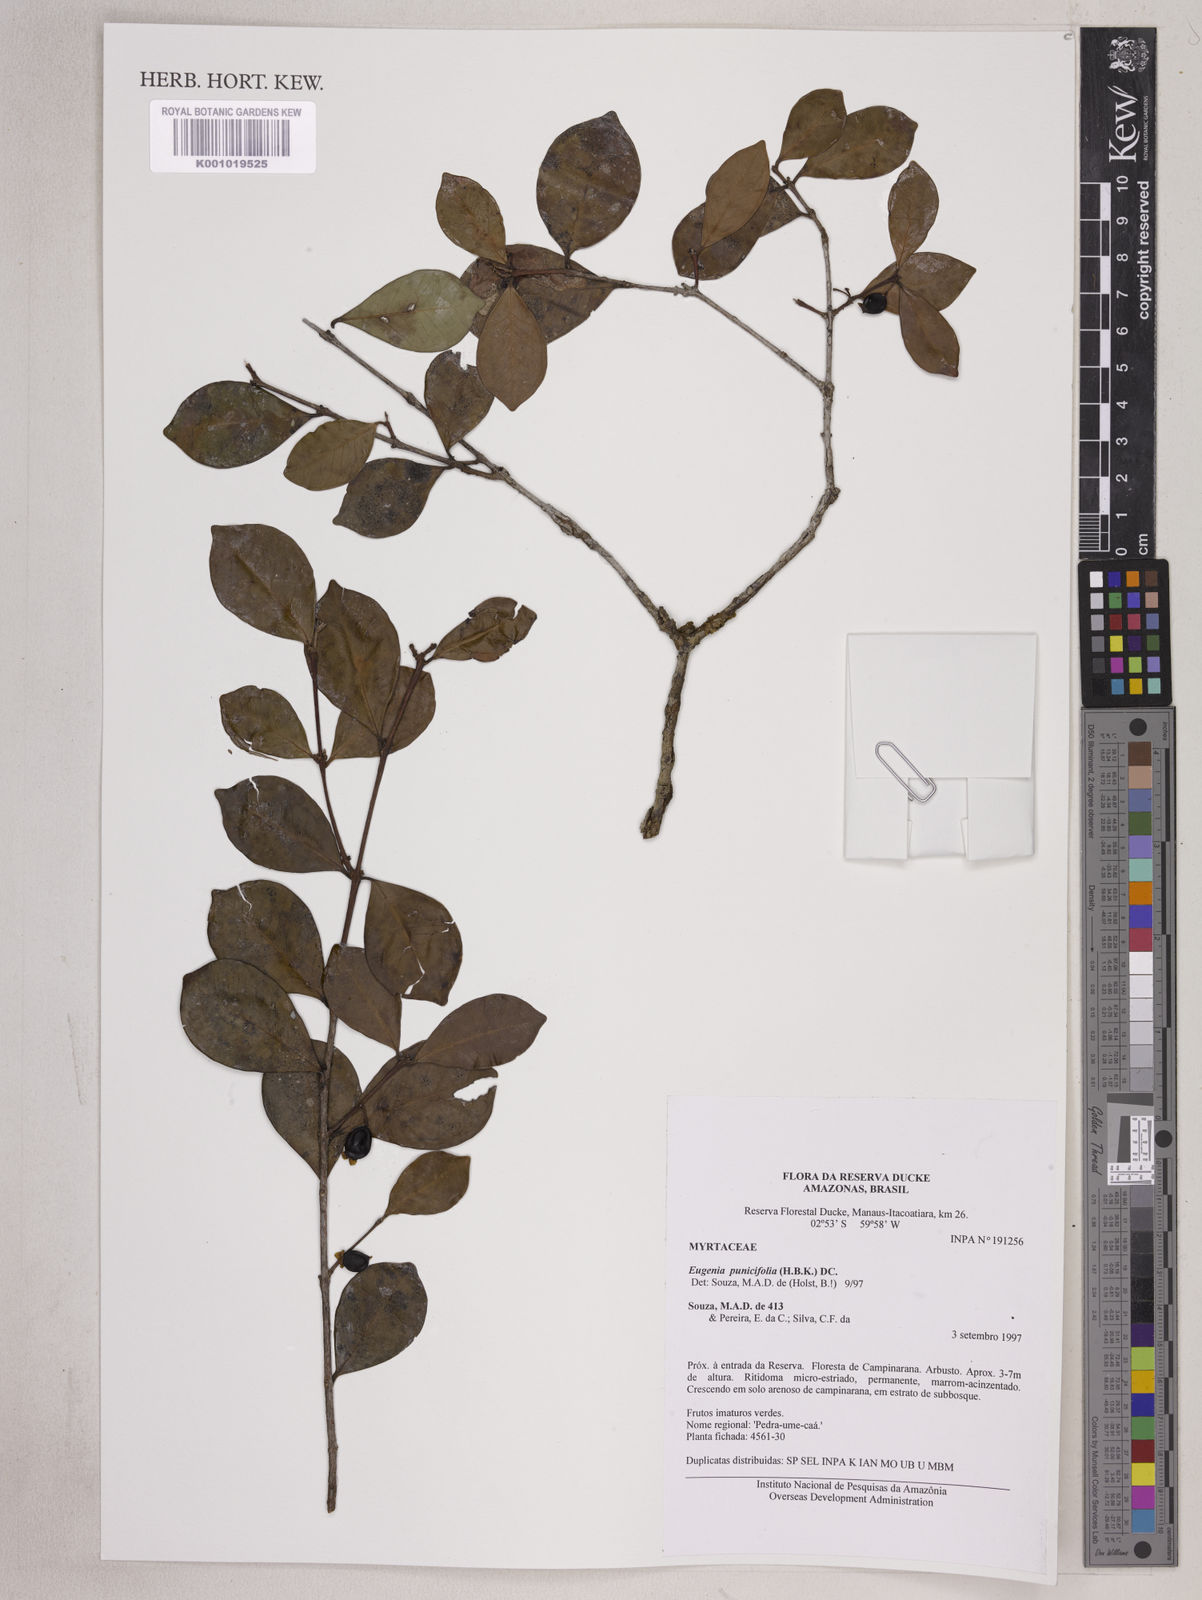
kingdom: Plantae
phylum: Tracheophyta
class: Magnoliopsida
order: Myrtales
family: Myrtaceae
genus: Eugenia
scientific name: Eugenia punicifolia
